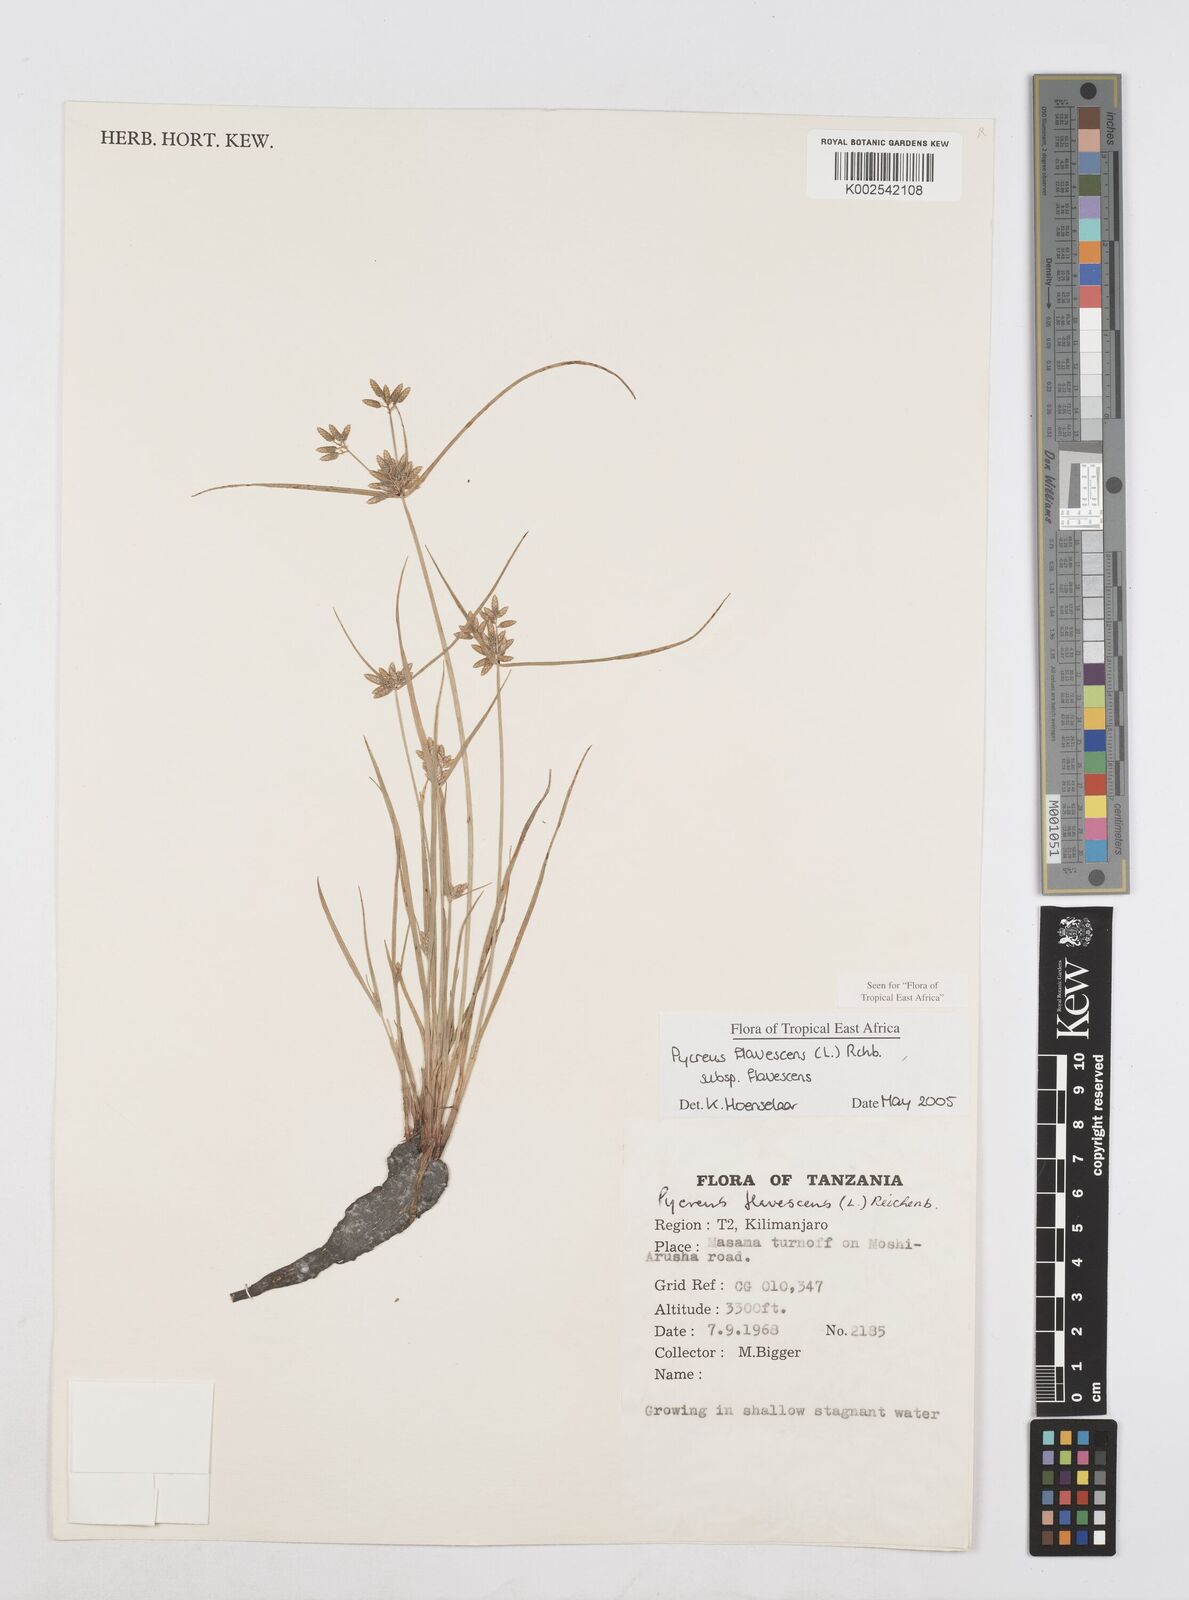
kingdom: Plantae
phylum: Tracheophyta
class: Liliopsida
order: Poales
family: Cyperaceae
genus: Cyperus
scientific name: Cyperus flavescens
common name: Yellow galingale
